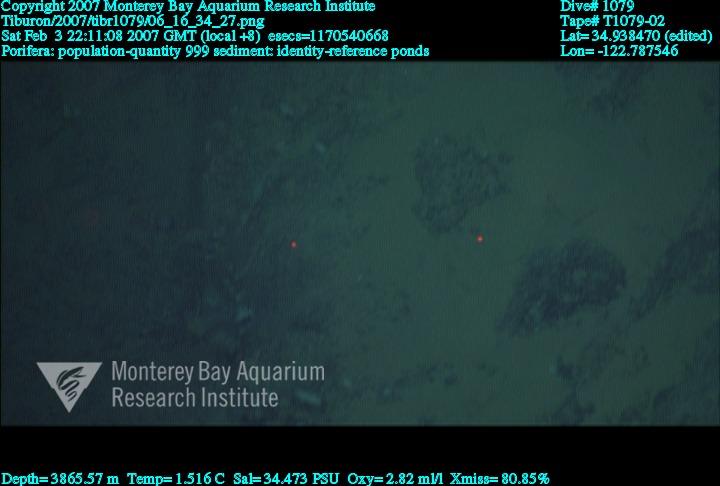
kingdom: Animalia
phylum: Porifera
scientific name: Porifera
